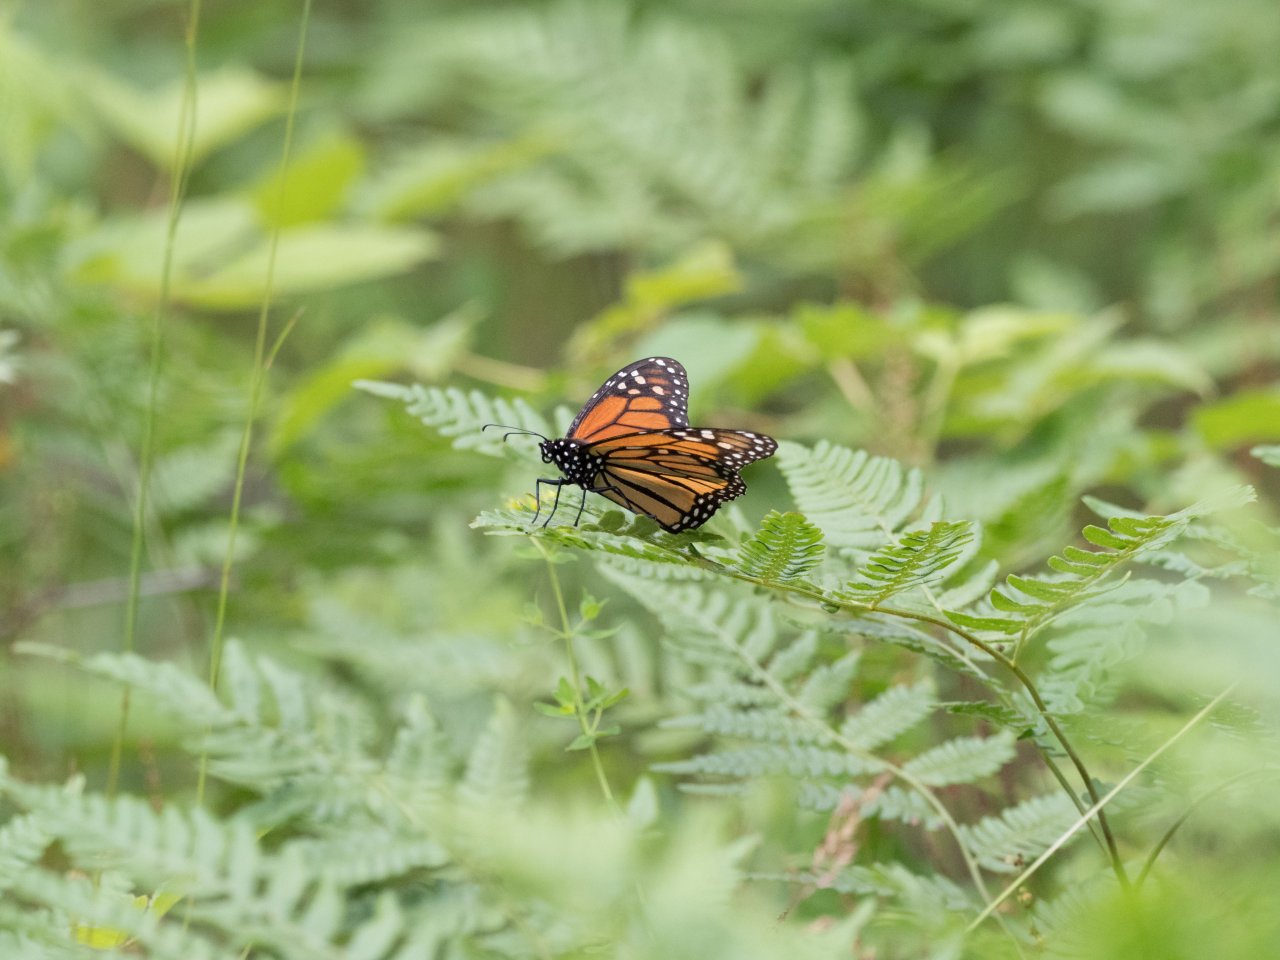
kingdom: Animalia
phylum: Arthropoda
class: Insecta
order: Lepidoptera
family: Nymphalidae
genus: Danaus
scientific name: Danaus plexippus
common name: Monarch
